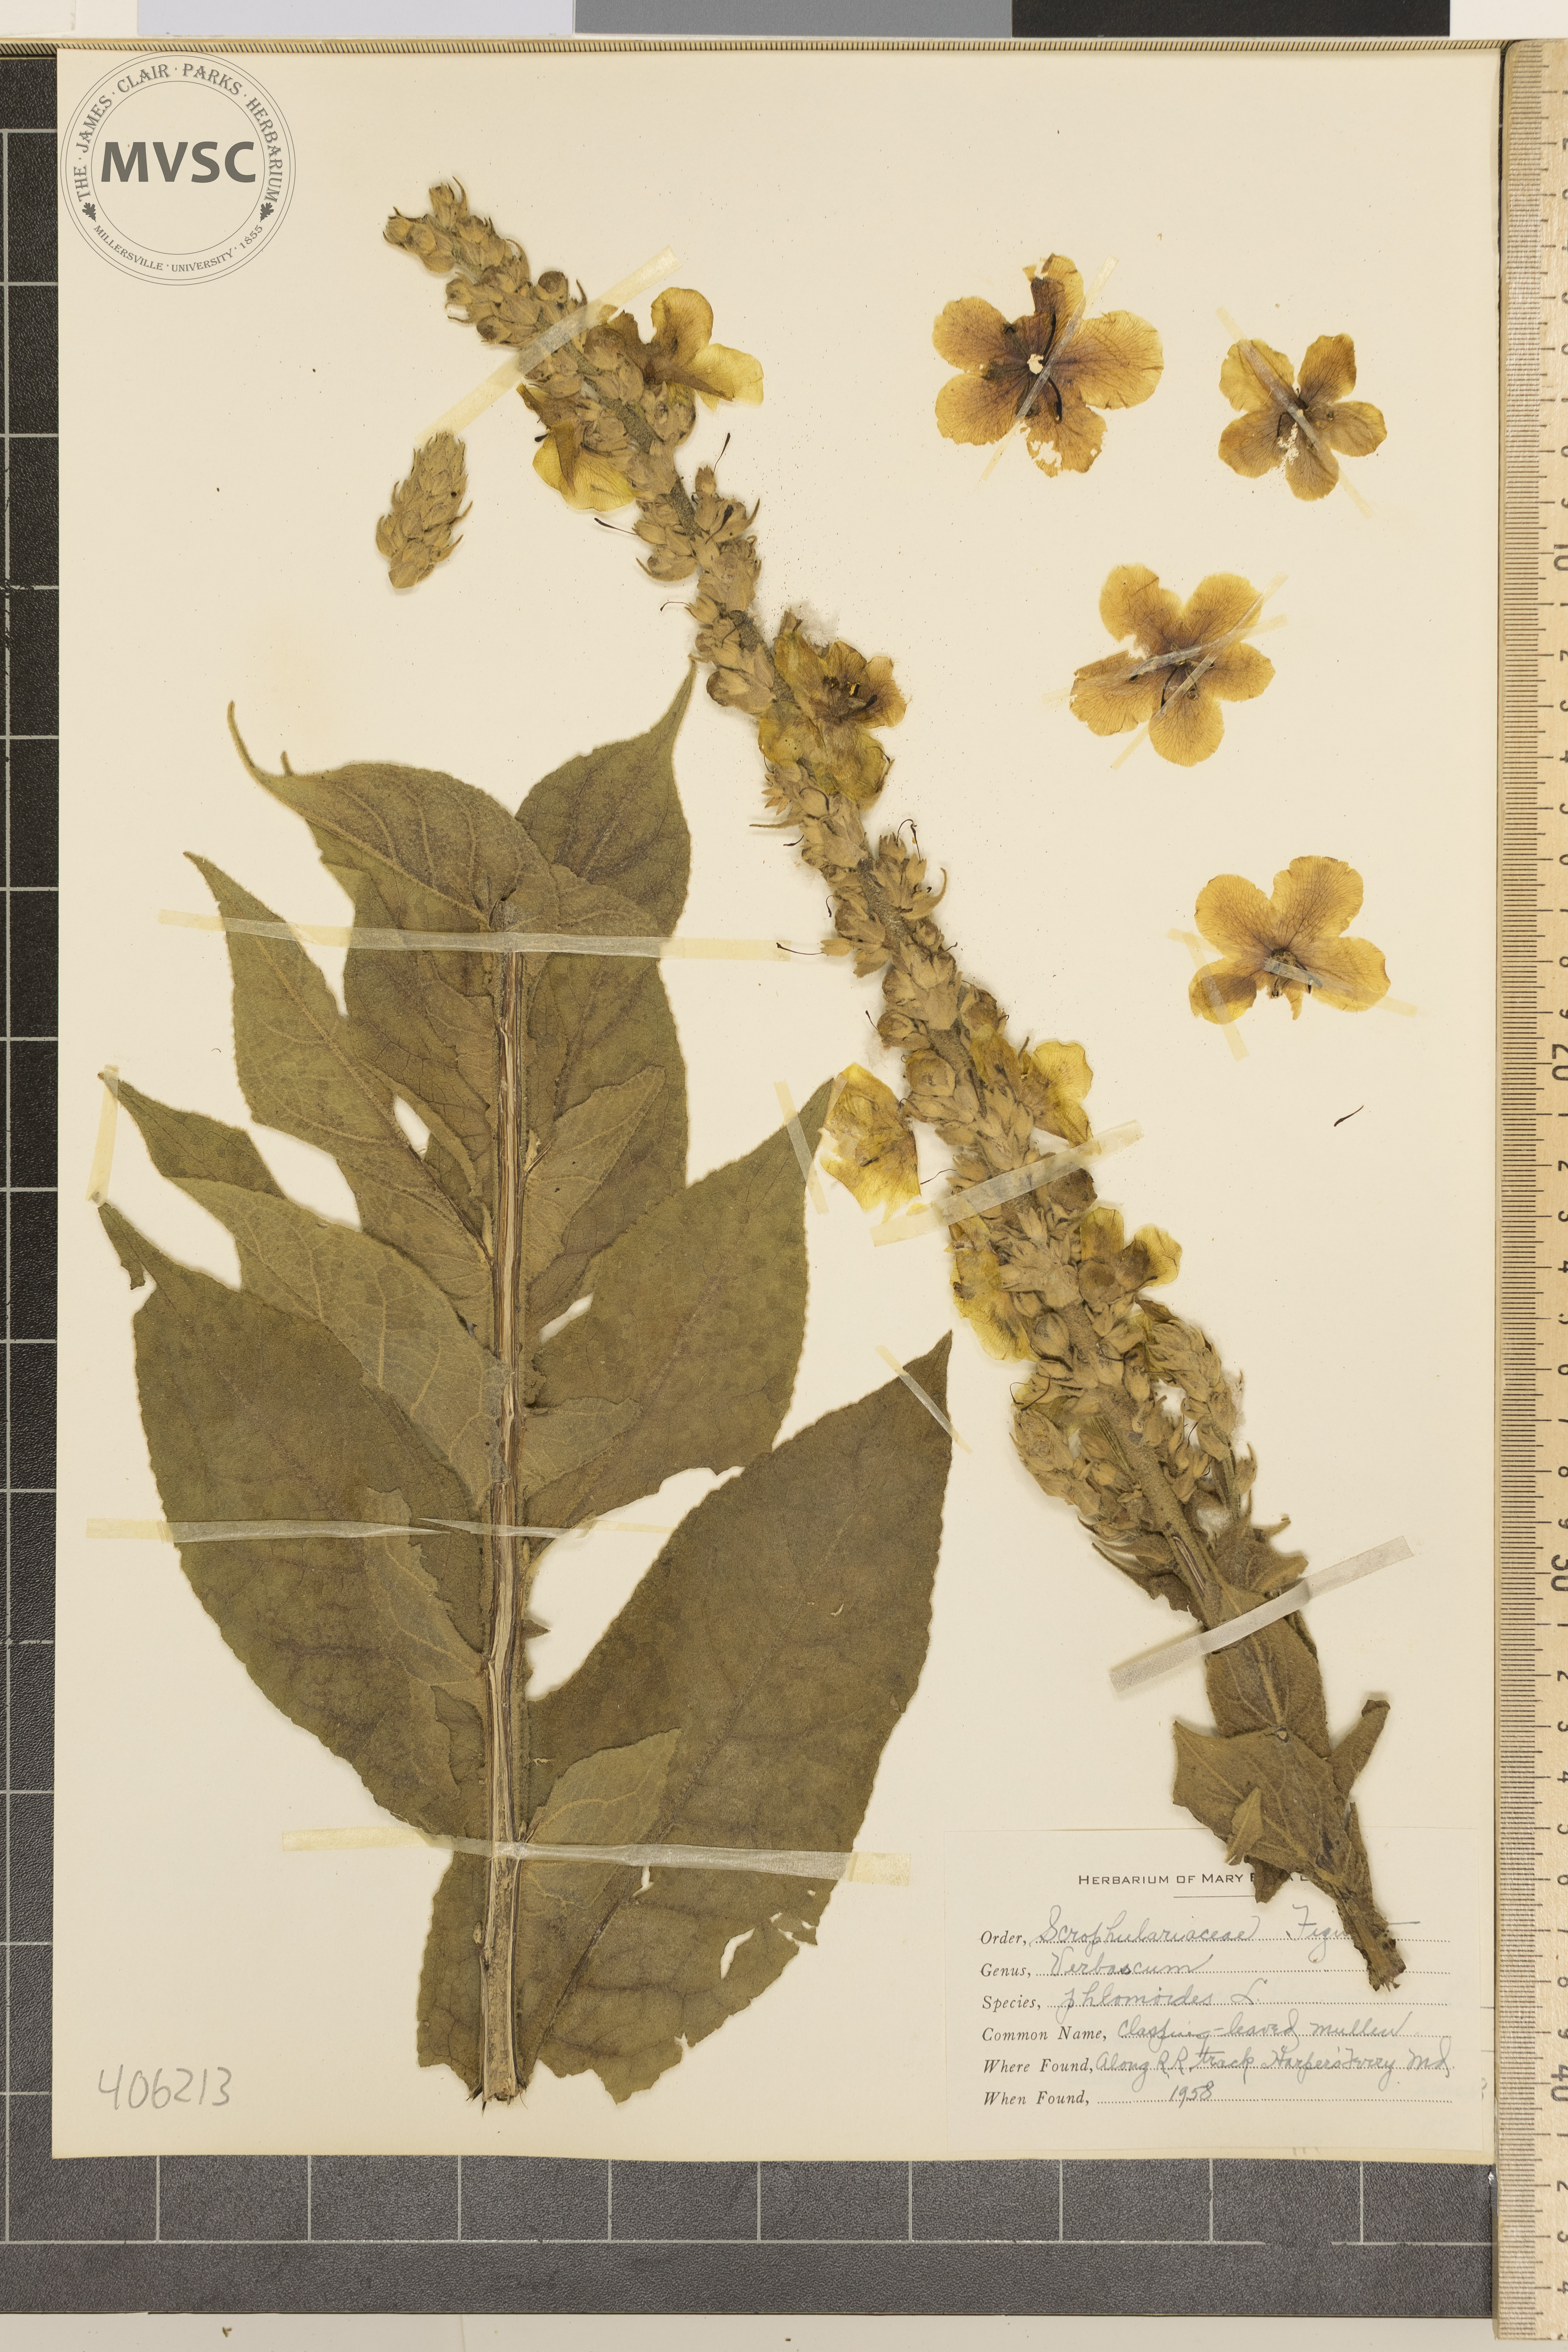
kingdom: Plantae
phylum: Tracheophyta
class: Magnoliopsida
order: Lamiales
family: Scrophulariaceae
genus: Verbascum
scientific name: Verbascum phlomoides
